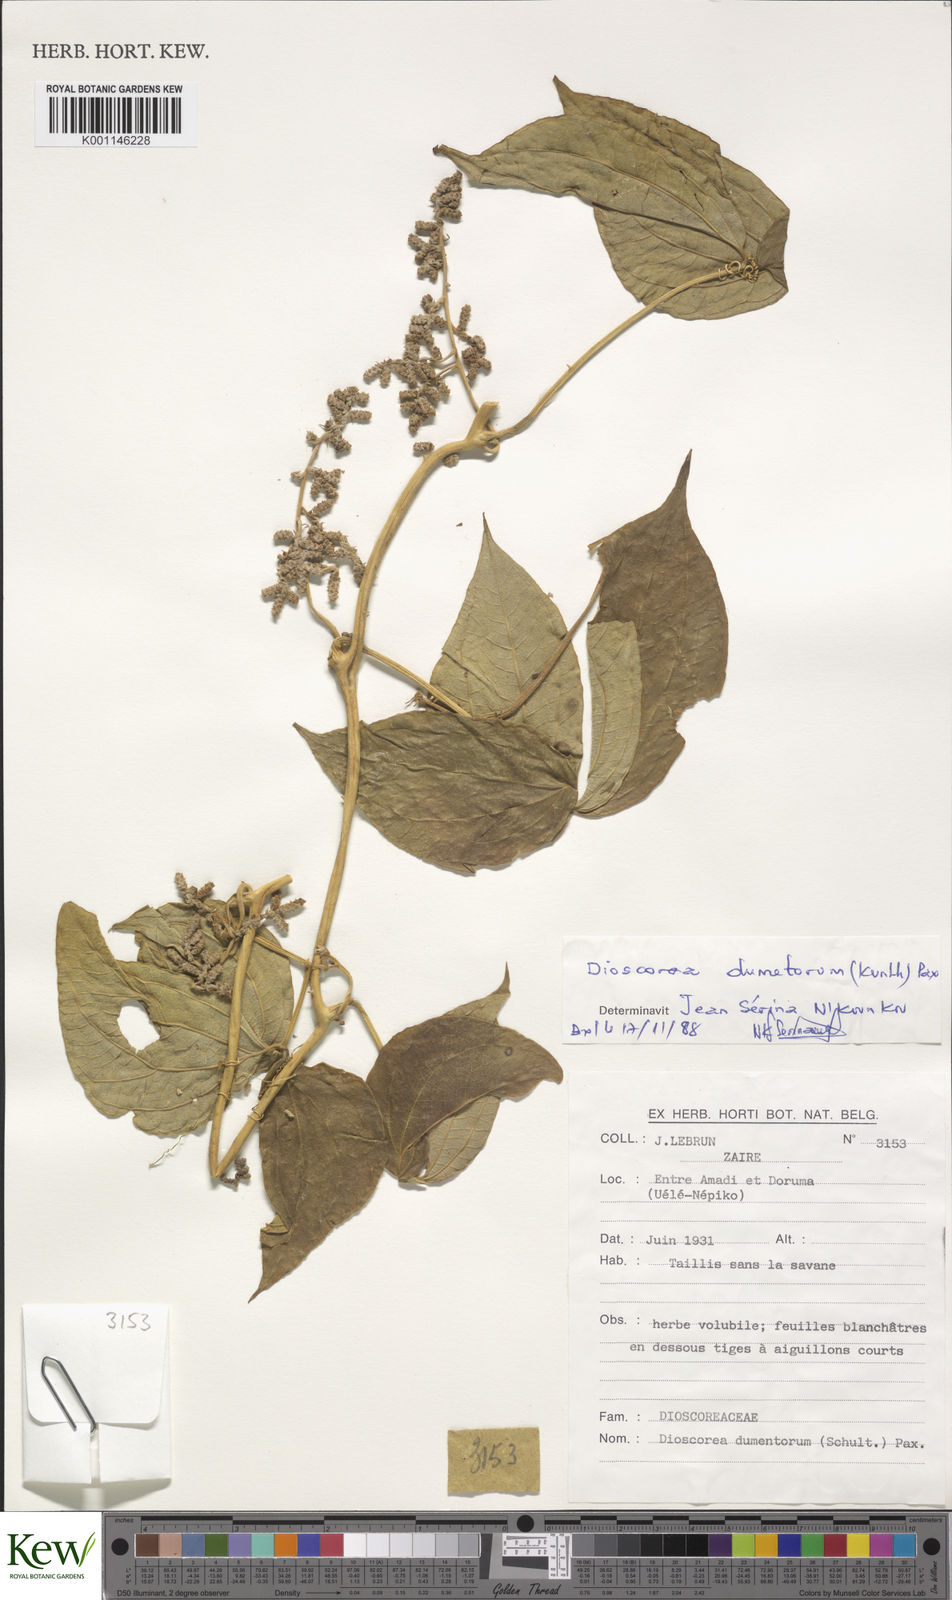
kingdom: Plantae
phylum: Tracheophyta
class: Liliopsida
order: Dioscoreales
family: Dioscoreaceae
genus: Dioscorea
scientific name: Dioscorea dumetorum
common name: African bitter yam
